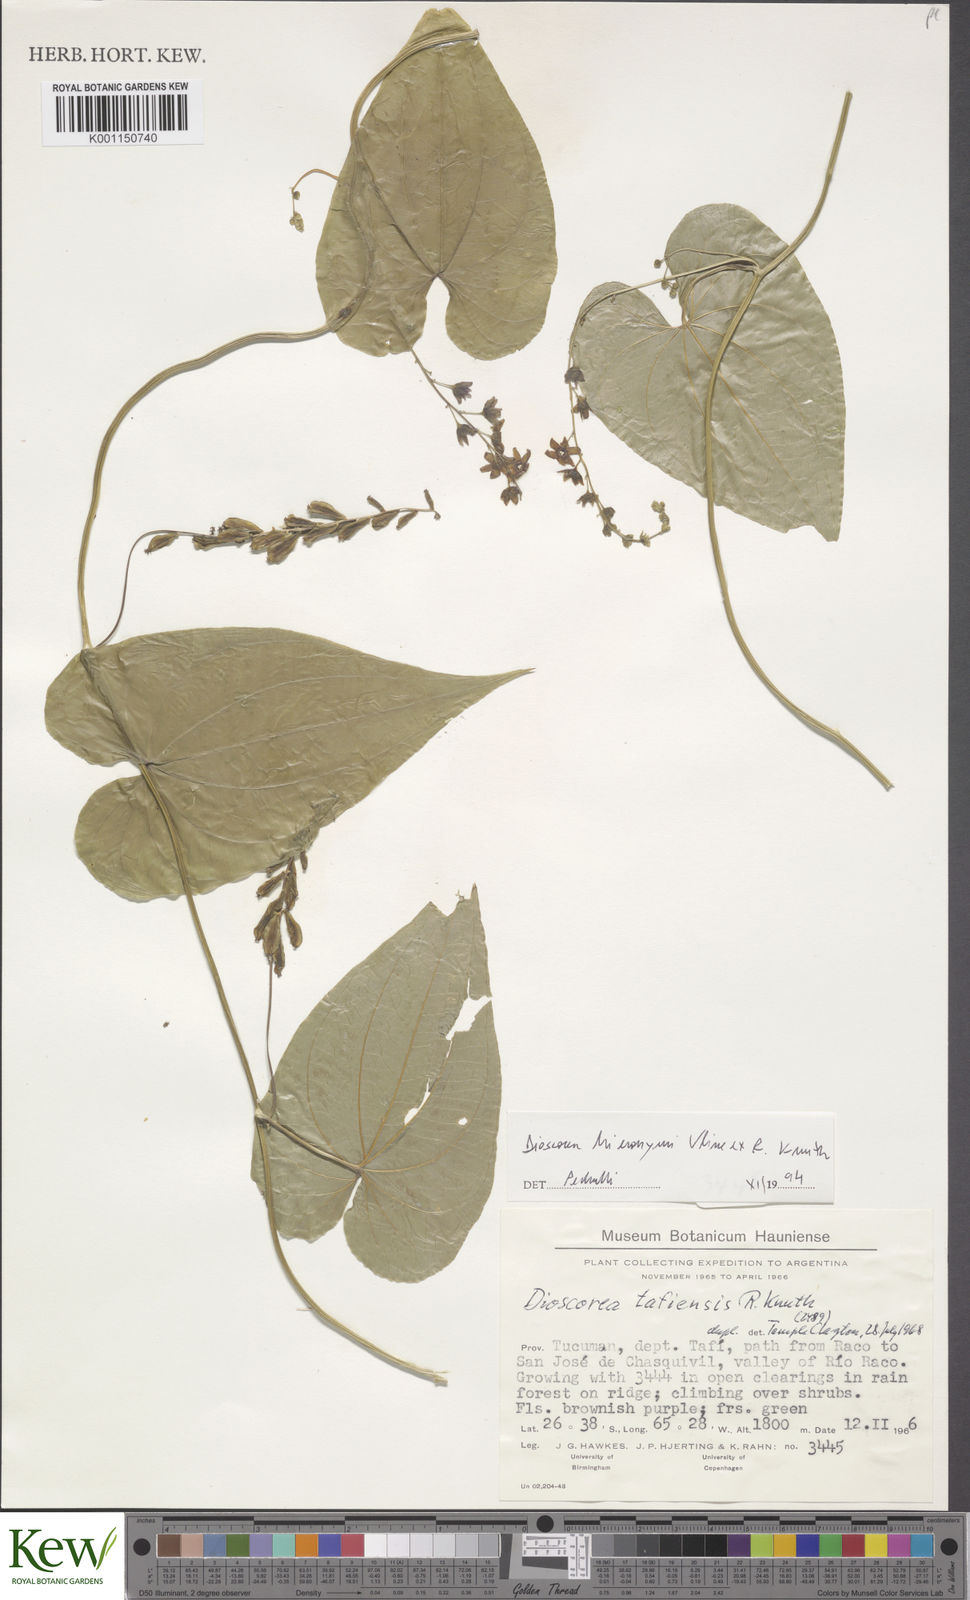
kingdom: Plantae
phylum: Tracheophyta
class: Liliopsida
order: Dioscoreales
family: Dioscoreaceae
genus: Dioscorea
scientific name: Dioscorea hieronymi
